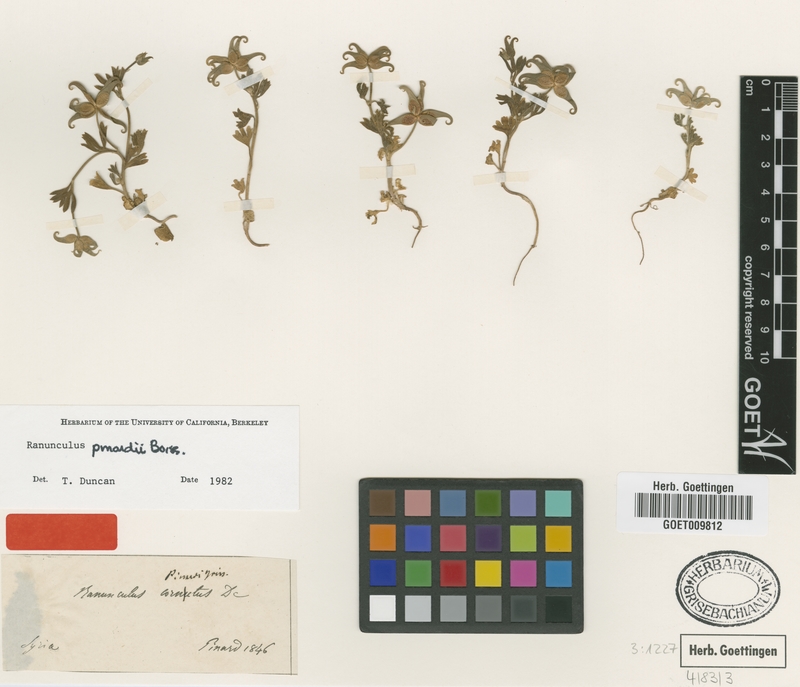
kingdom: Plantae
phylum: Tracheophyta
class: Magnoliopsida
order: Ranunculales
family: Ranunculaceae
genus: Ranunculus
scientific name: Ranunculus pinardii
